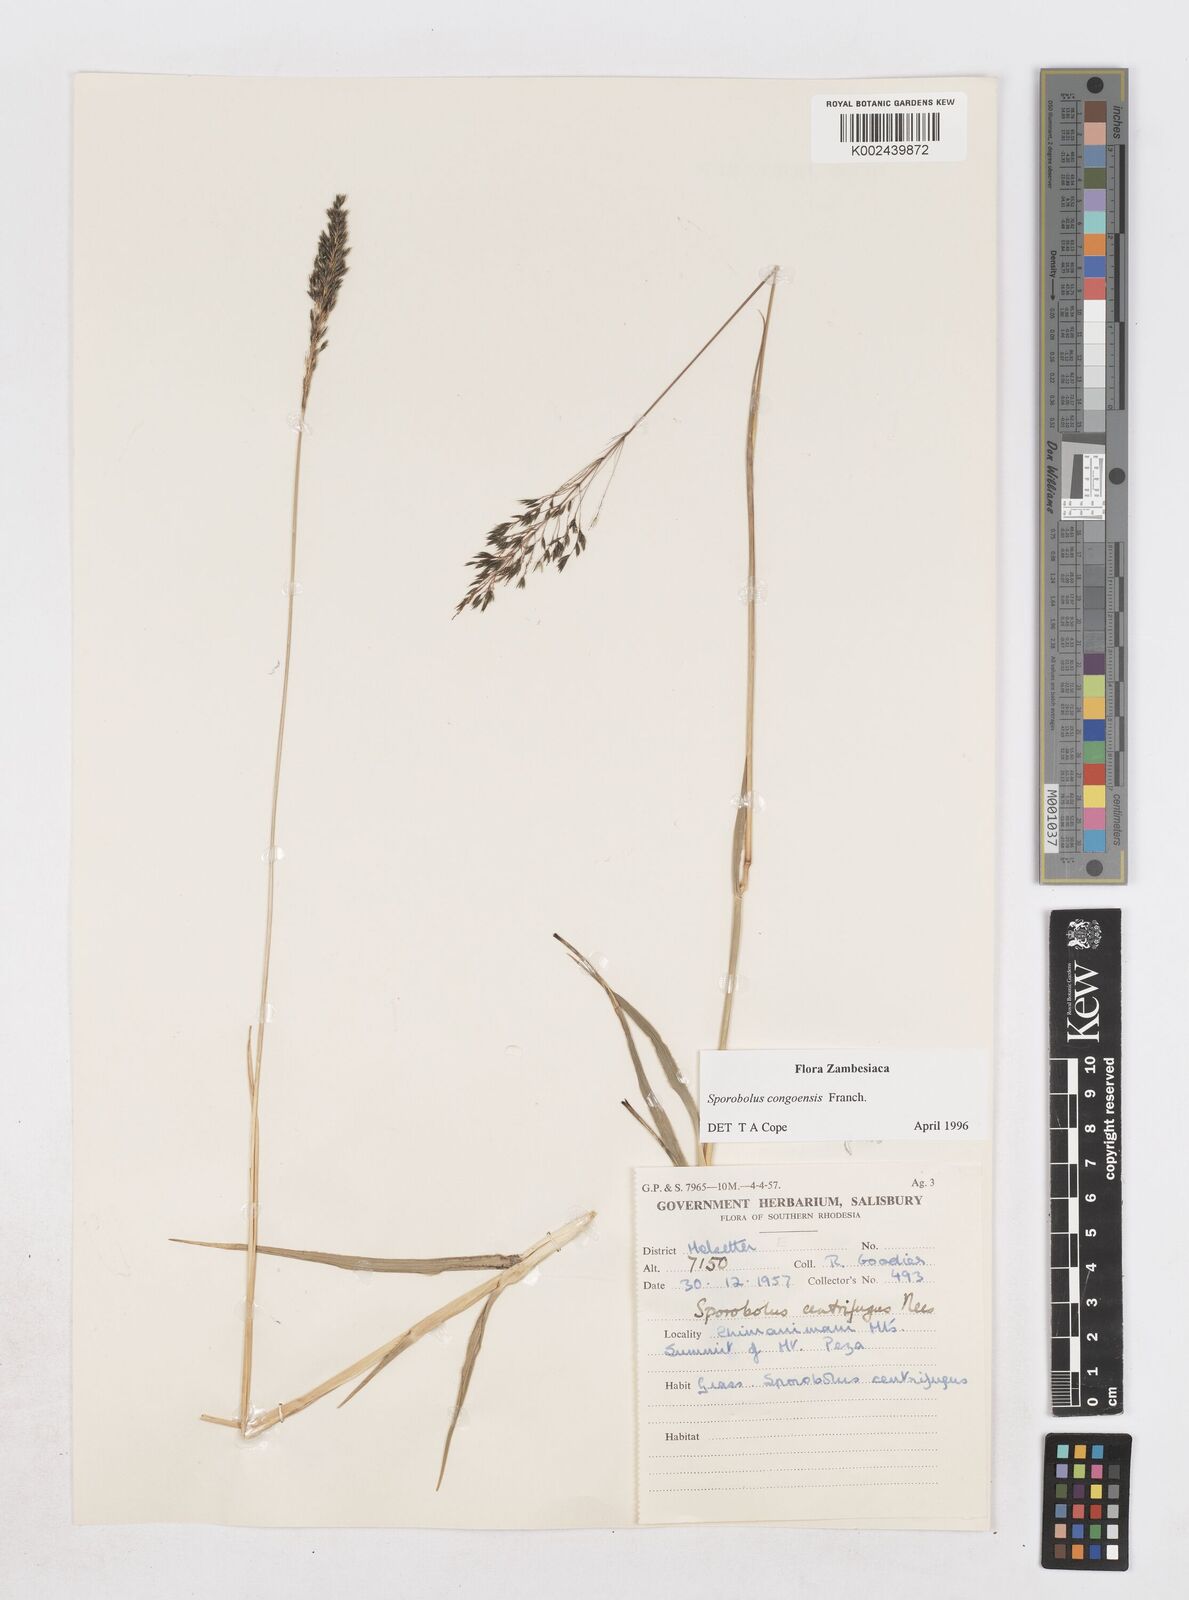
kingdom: Plantae
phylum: Tracheophyta
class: Liliopsida
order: Poales
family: Poaceae
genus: Sporobolus
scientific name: Sporobolus congoensis
